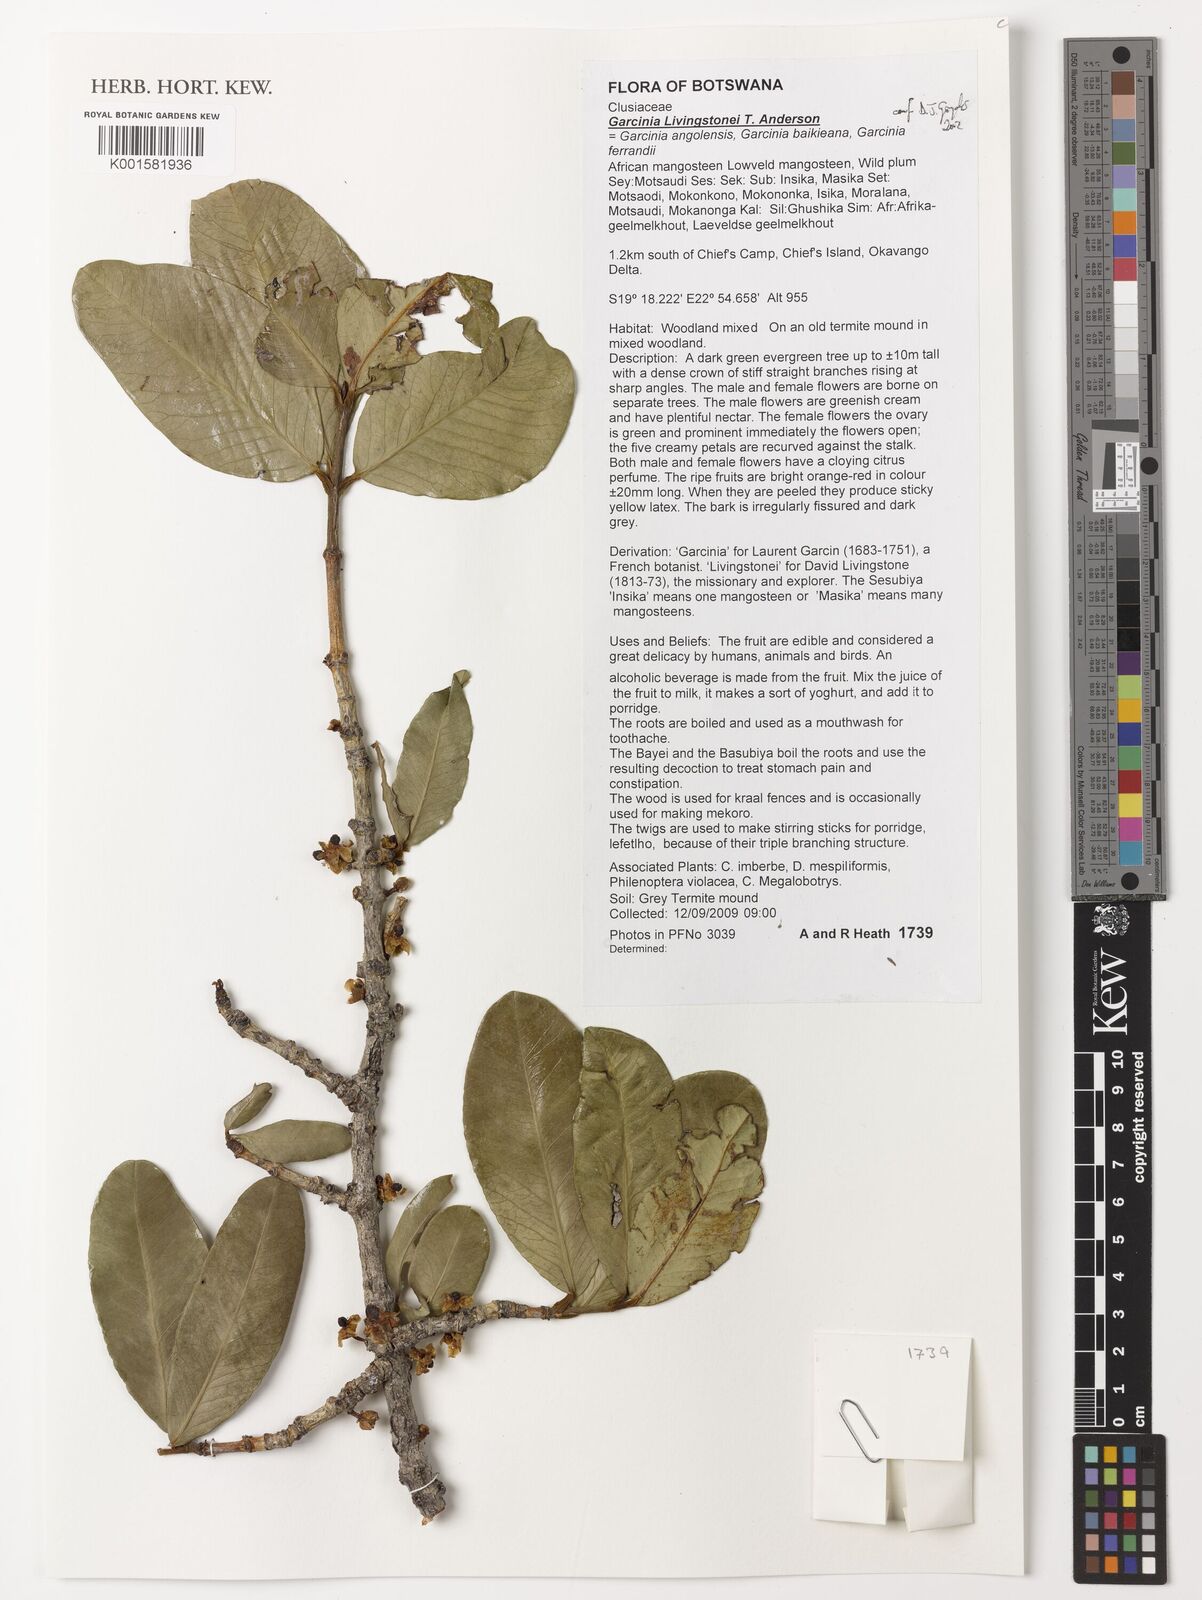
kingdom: Plantae
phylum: Tracheophyta
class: Magnoliopsida
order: Malpighiales
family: Clusiaceae
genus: Garcinia
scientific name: Garcinia livingstonei
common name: African mangosteen
